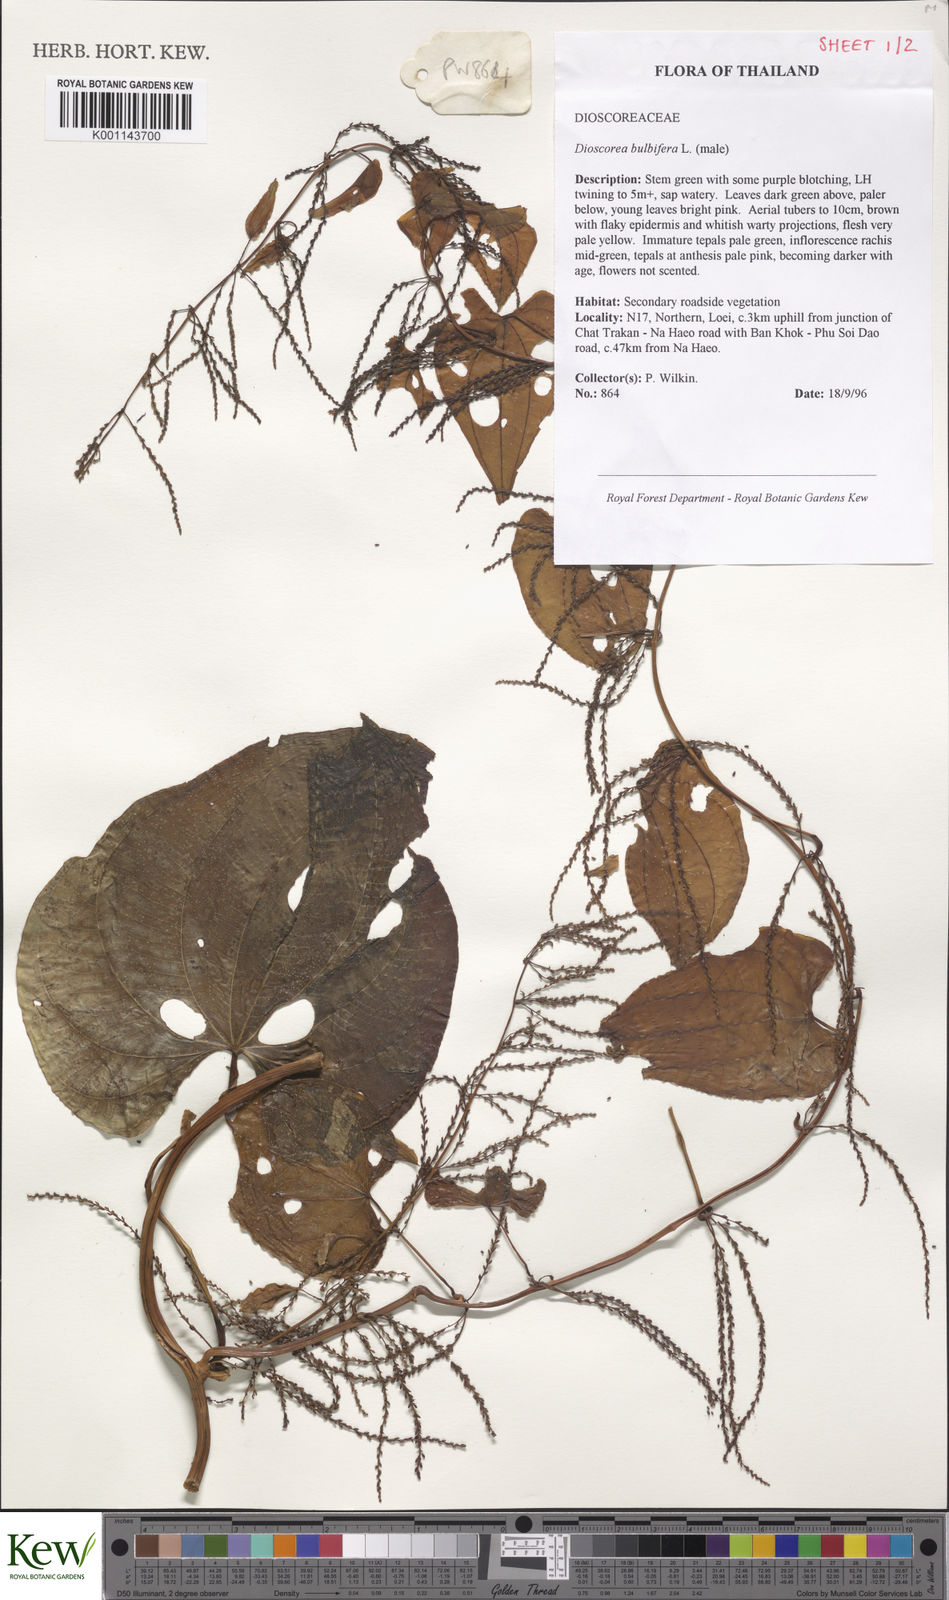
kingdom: Plantae
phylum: Tracheophyta
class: Liliopsida
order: Dioscoreales
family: Dioscoreaceae
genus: Dioscorea
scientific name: Dioscorea bulbifera
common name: Air yam
